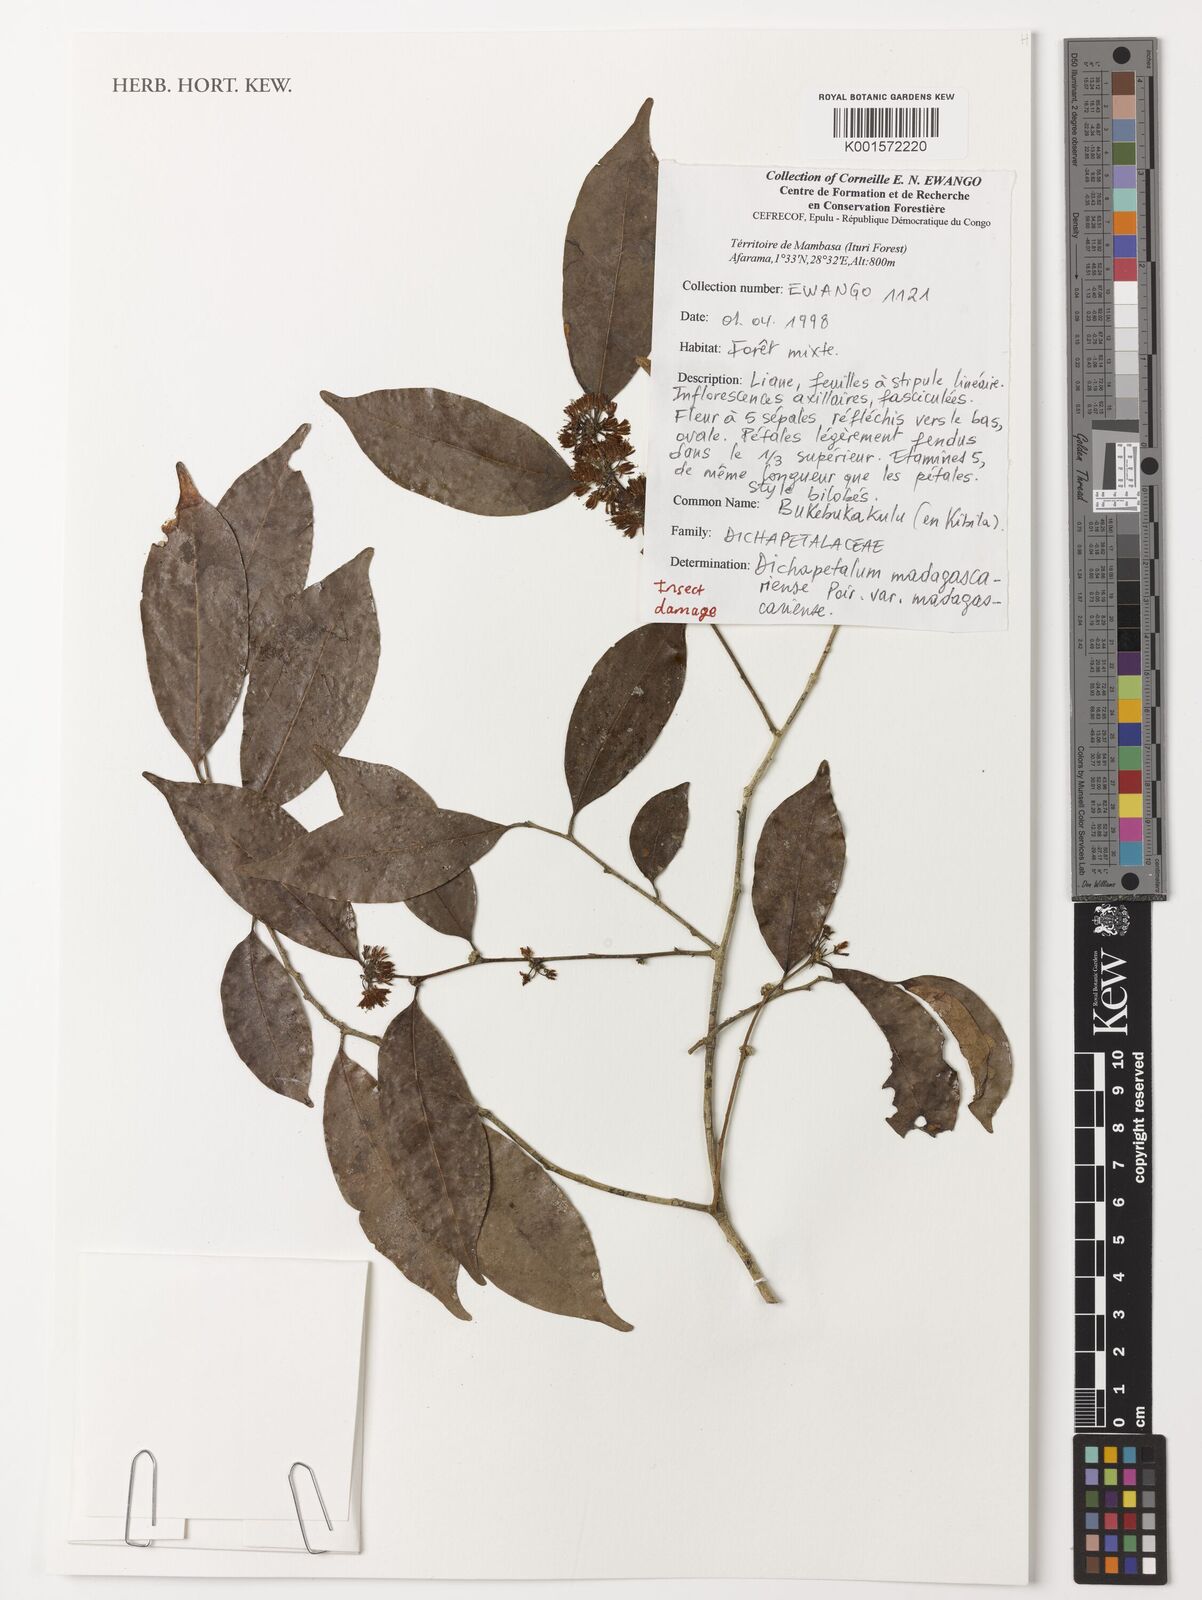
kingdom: Plantae
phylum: Tracheophyta
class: Magnoliopsida
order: Malpighiales
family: Dichapetalaceae
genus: Dichapetalum
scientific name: Dichapetalum madagascariense
